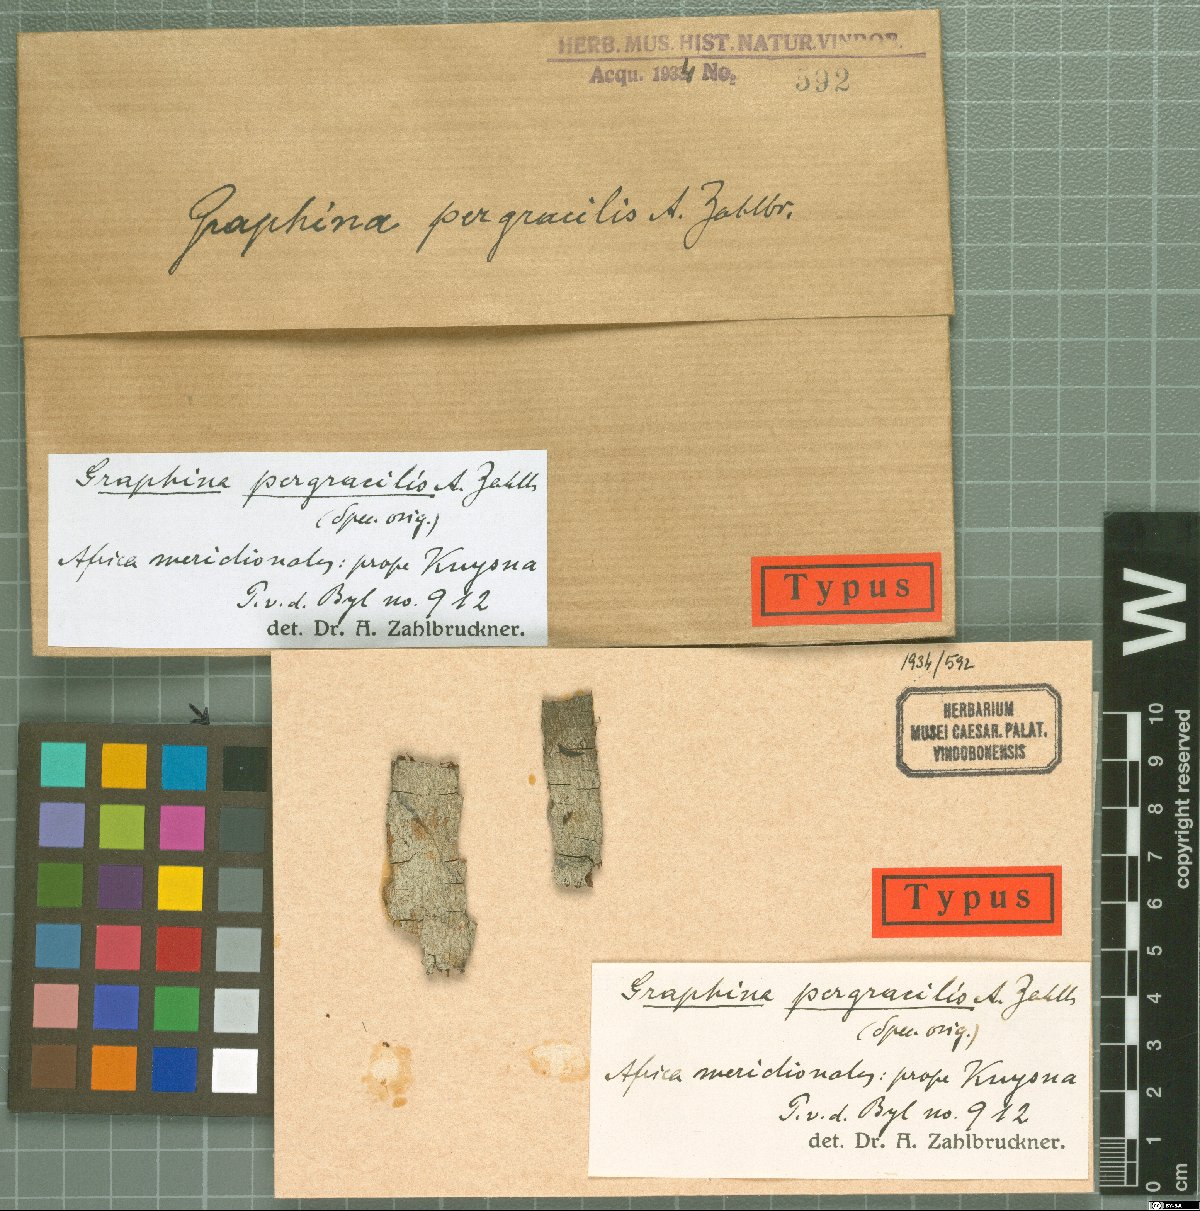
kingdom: Fungi
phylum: Ascomycota
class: Lecanoromycetes
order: Ostropales
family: Graphidaceae
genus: Graphina
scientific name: Graphina
